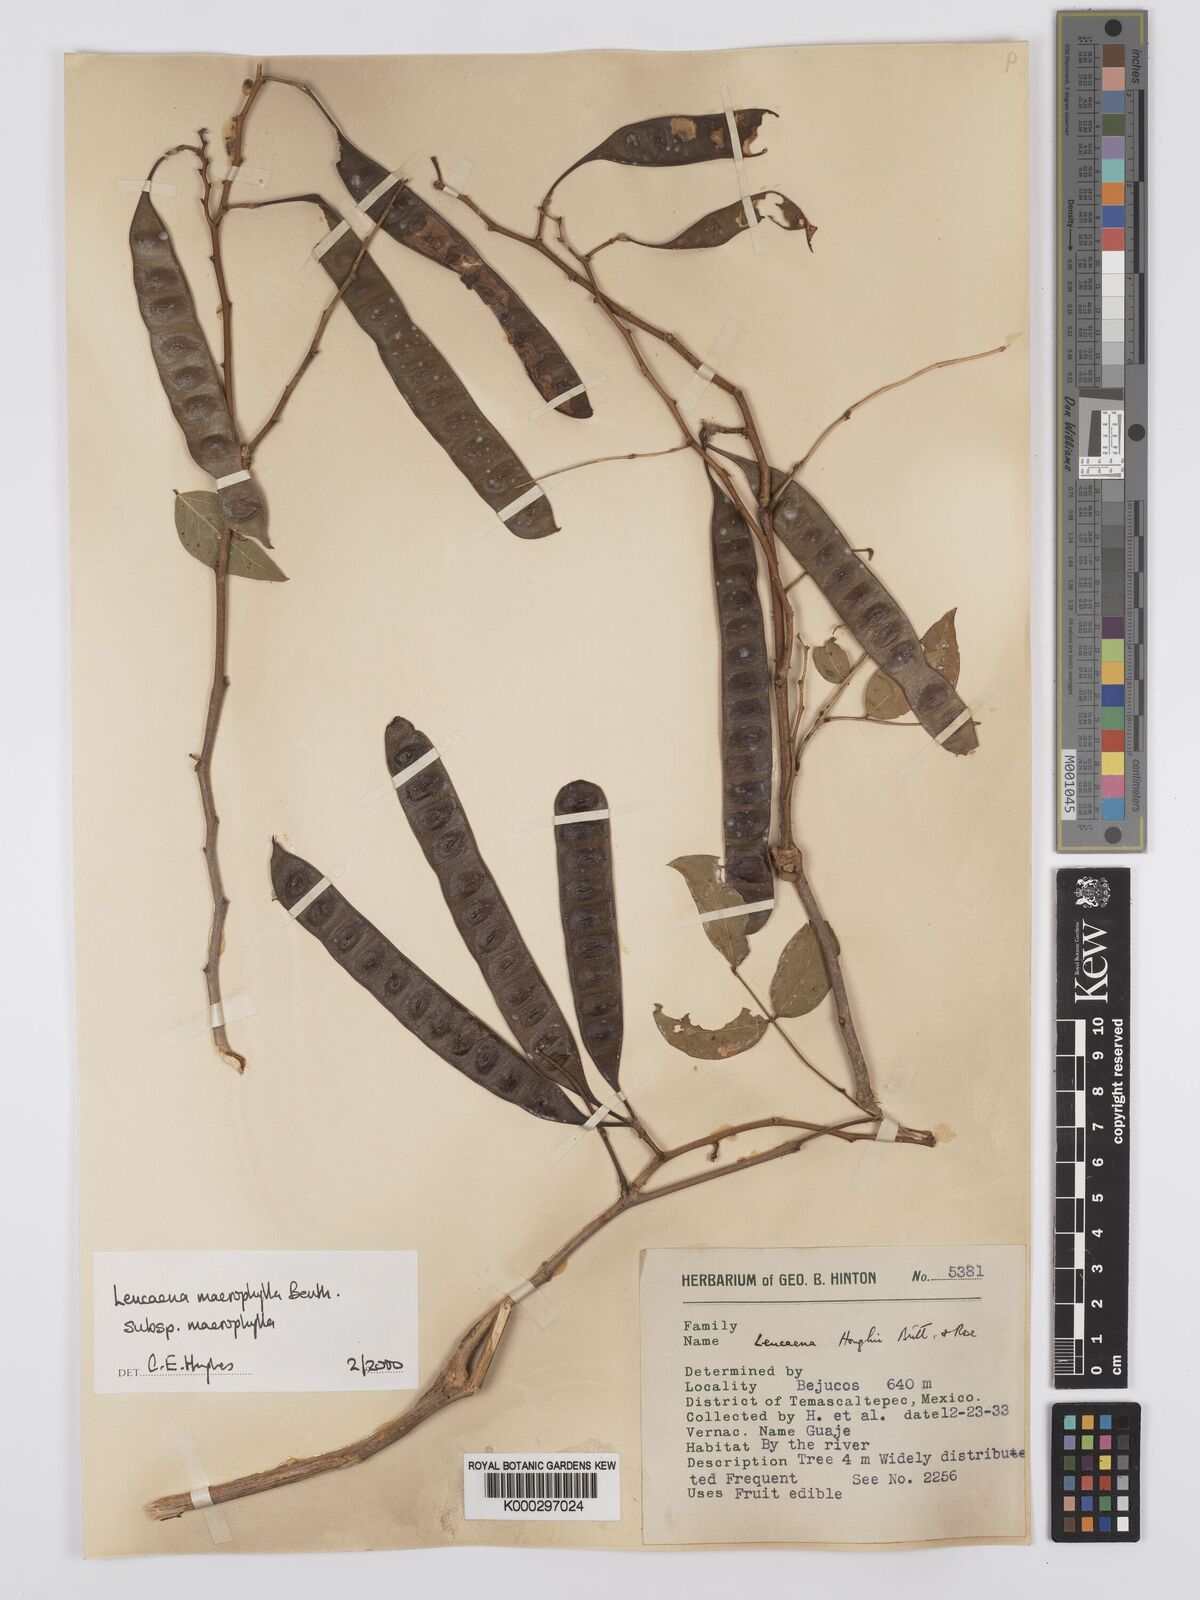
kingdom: Plantae
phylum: Tracheophyta
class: Magnoliopsida
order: Fabales
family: Fabaceae
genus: Leucaena
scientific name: Leucaena macrophylla
